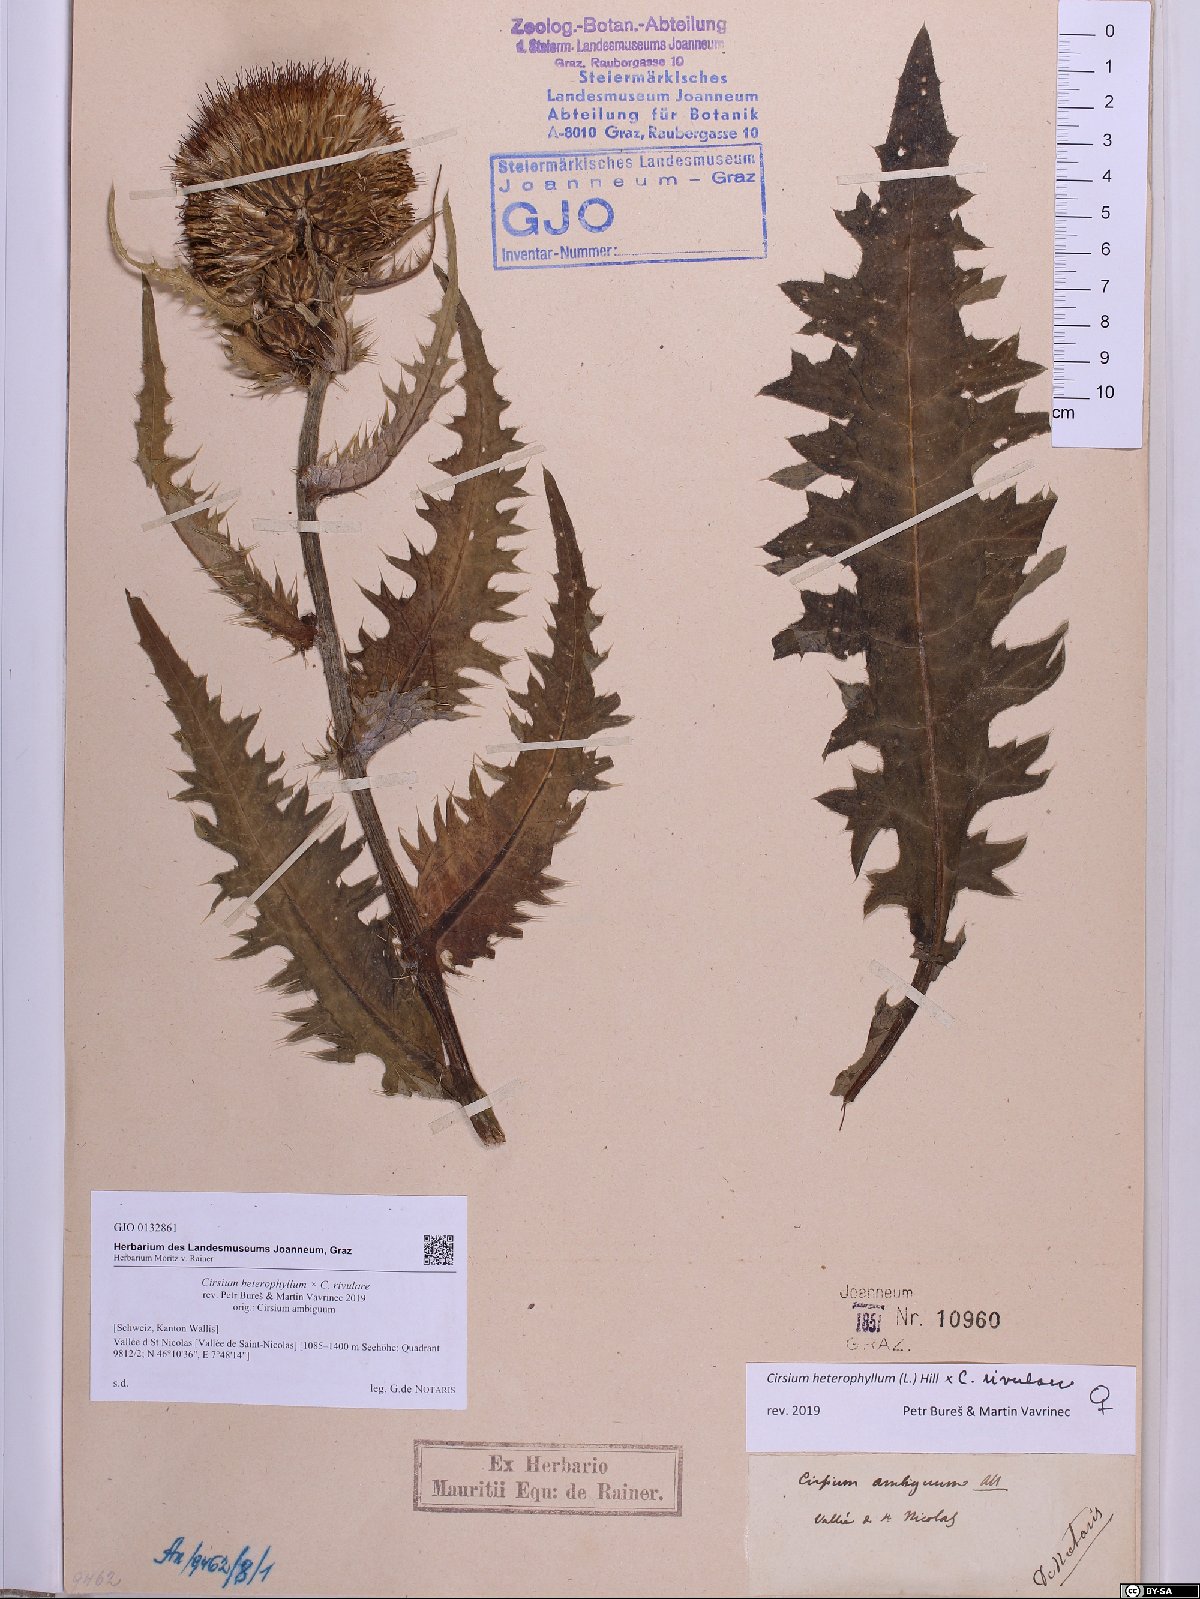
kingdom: Plantae
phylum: Tracheophyta
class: Magnoliopsida
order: Asterales
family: Asteraceae
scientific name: Asteraceae
